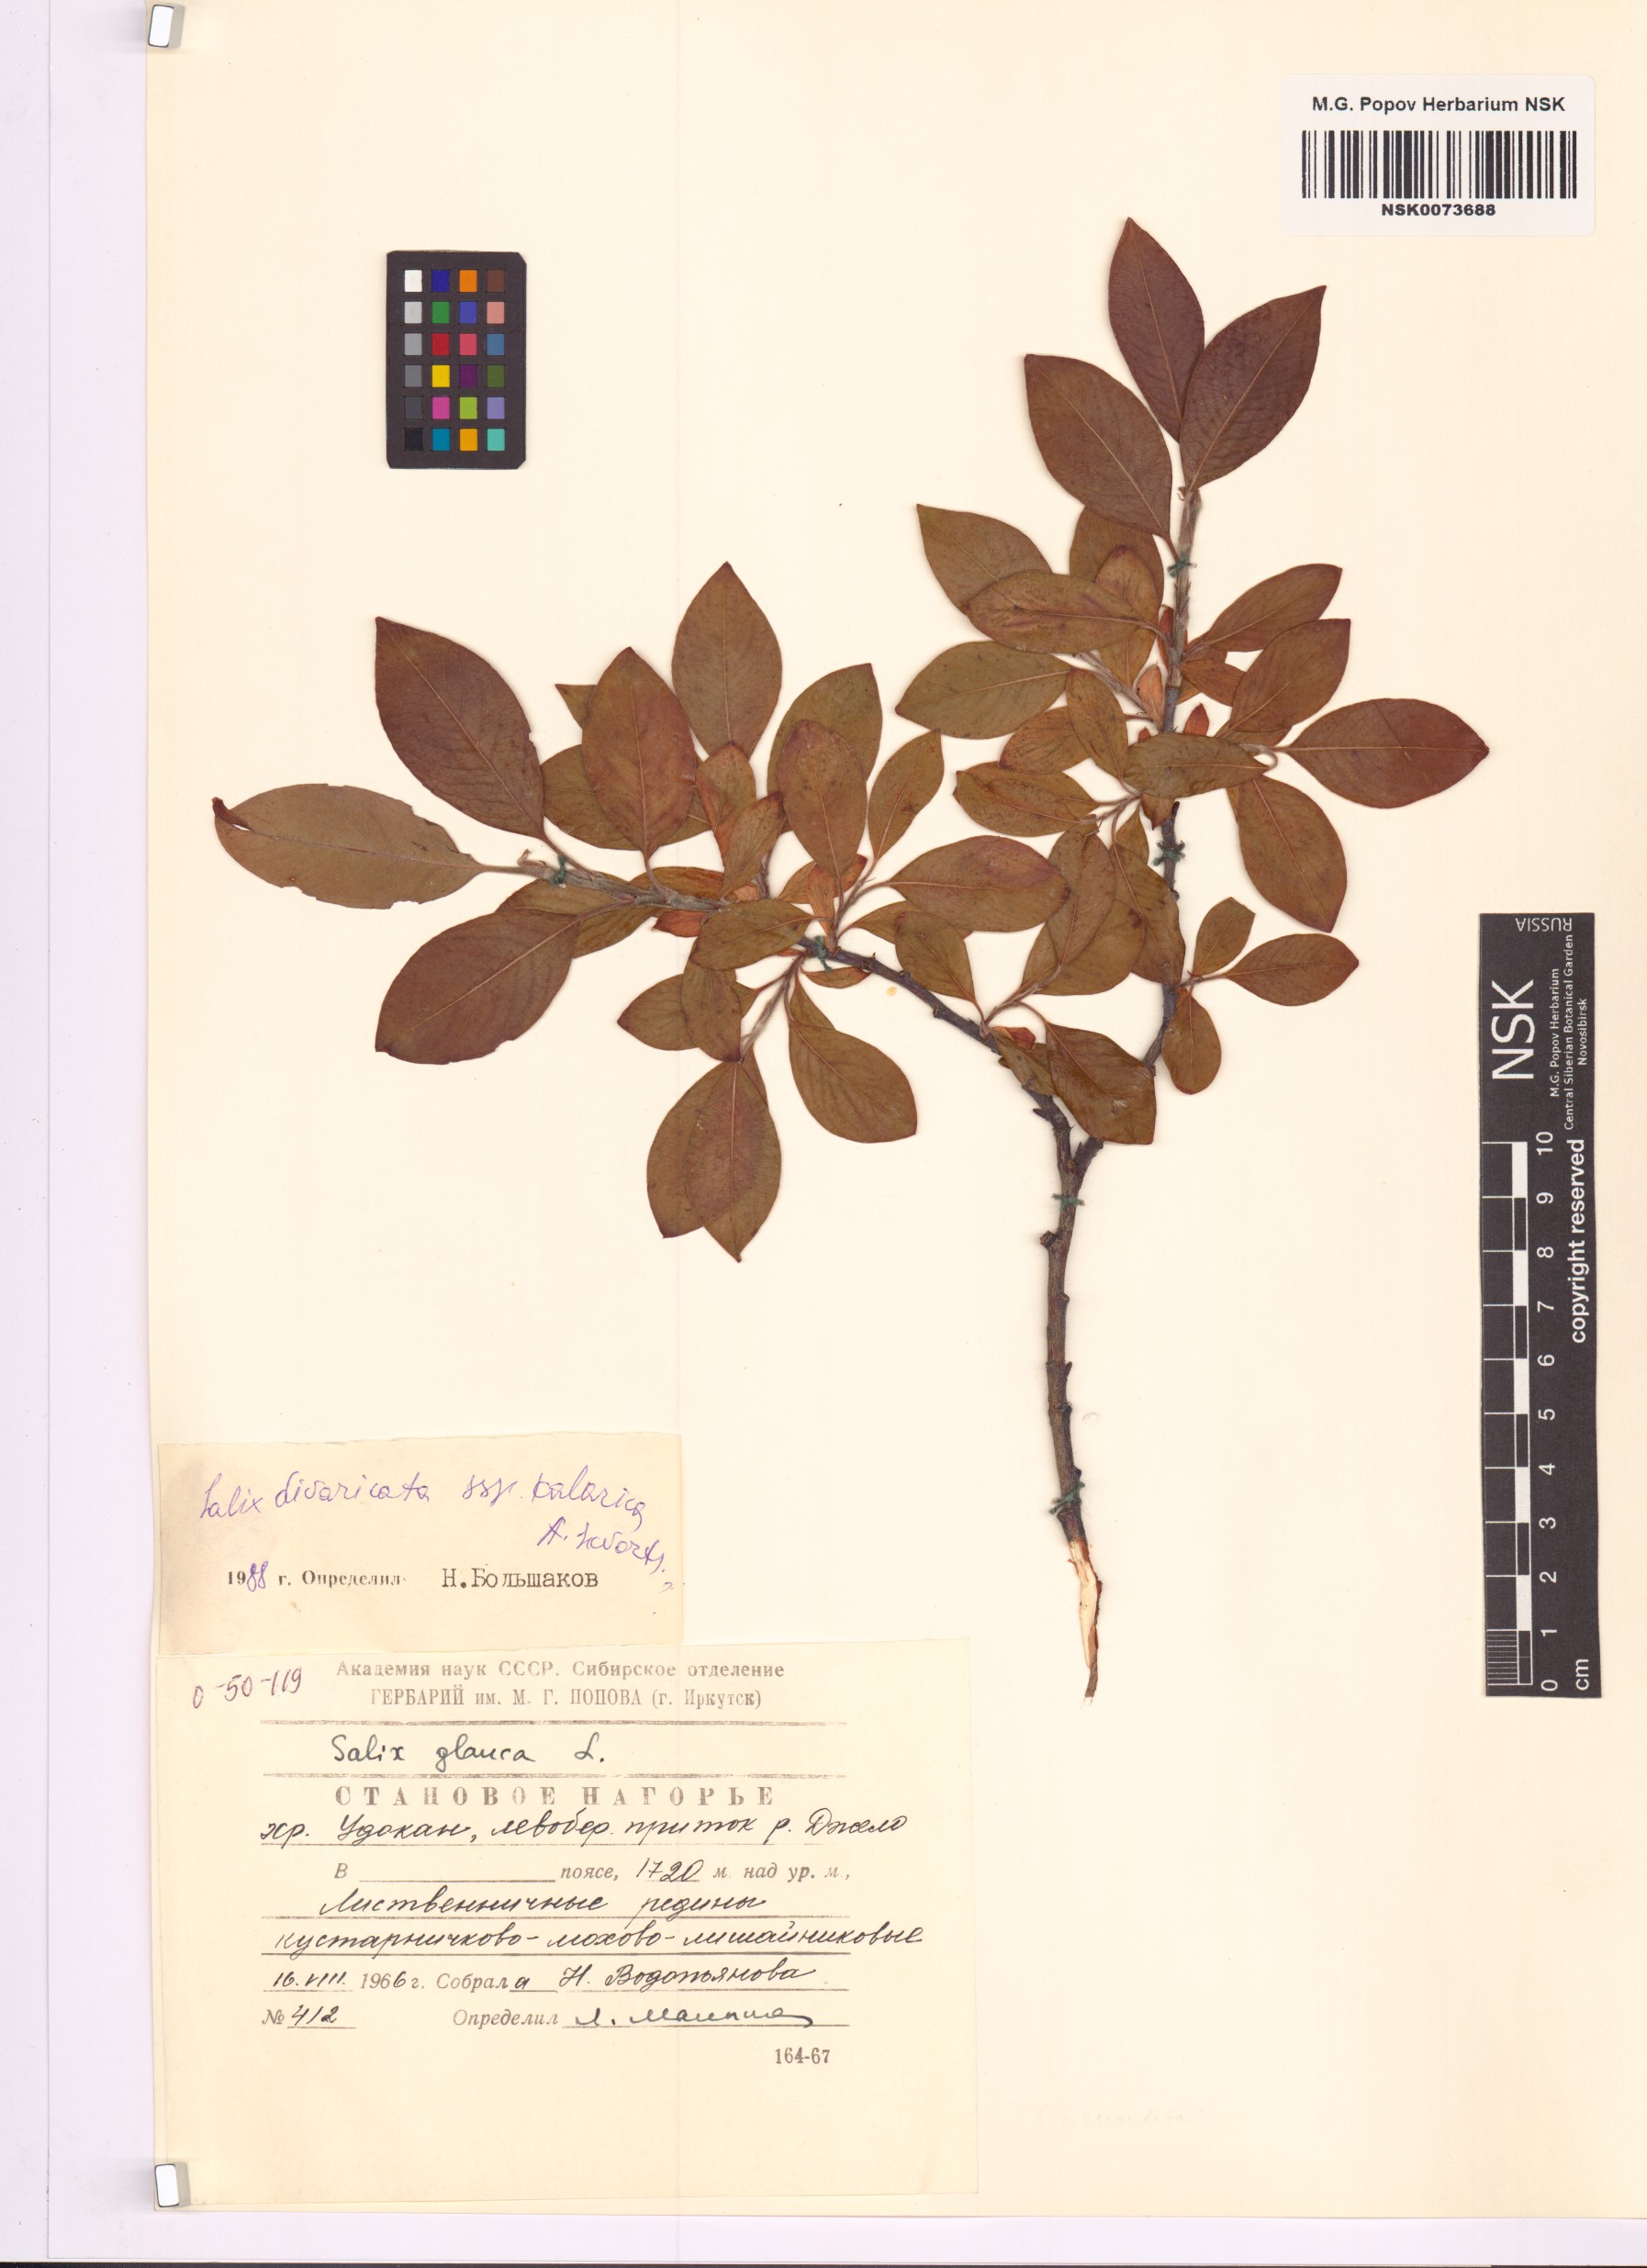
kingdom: Plantae
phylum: Tracheophyta
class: Magnoliopsida
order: Malpighiales
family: Salicaceae
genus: Salix
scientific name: Salix kalarica
